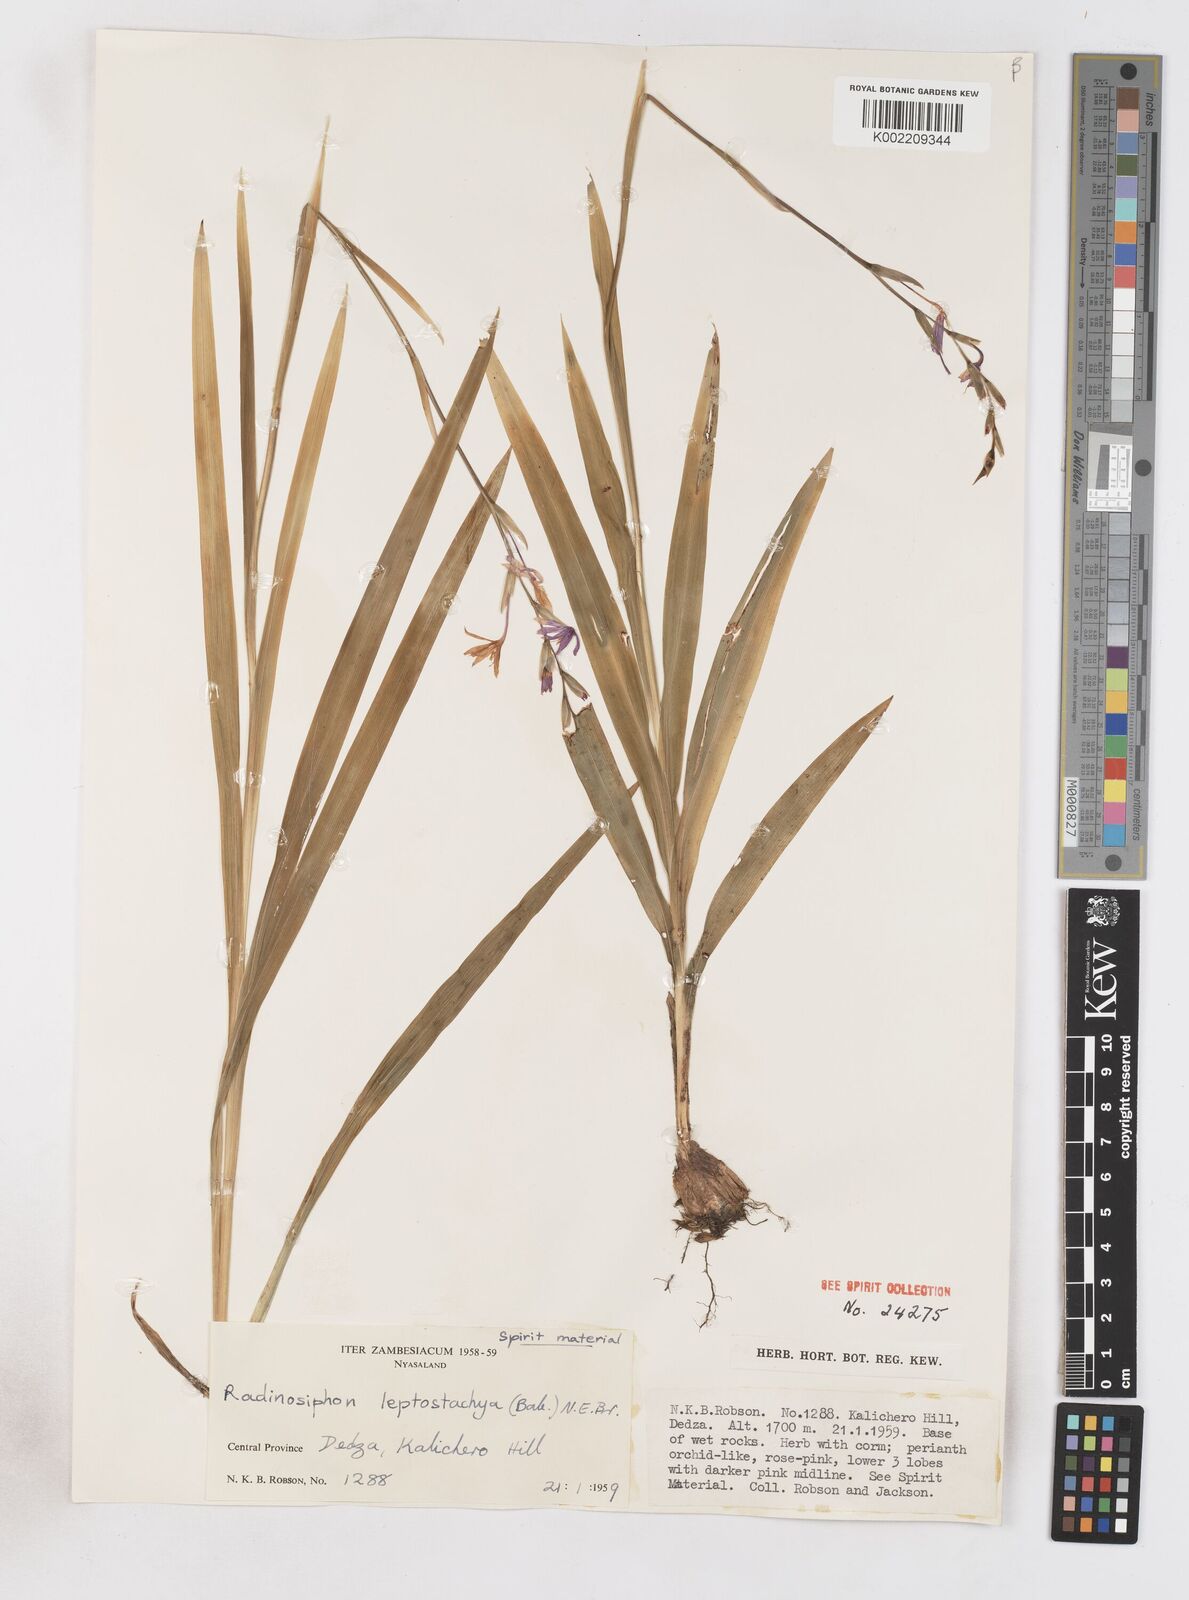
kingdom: Plantae
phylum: Tracheophyta
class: Liliopsida
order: Asparagales
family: Iridaceae
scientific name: Iridaceae
